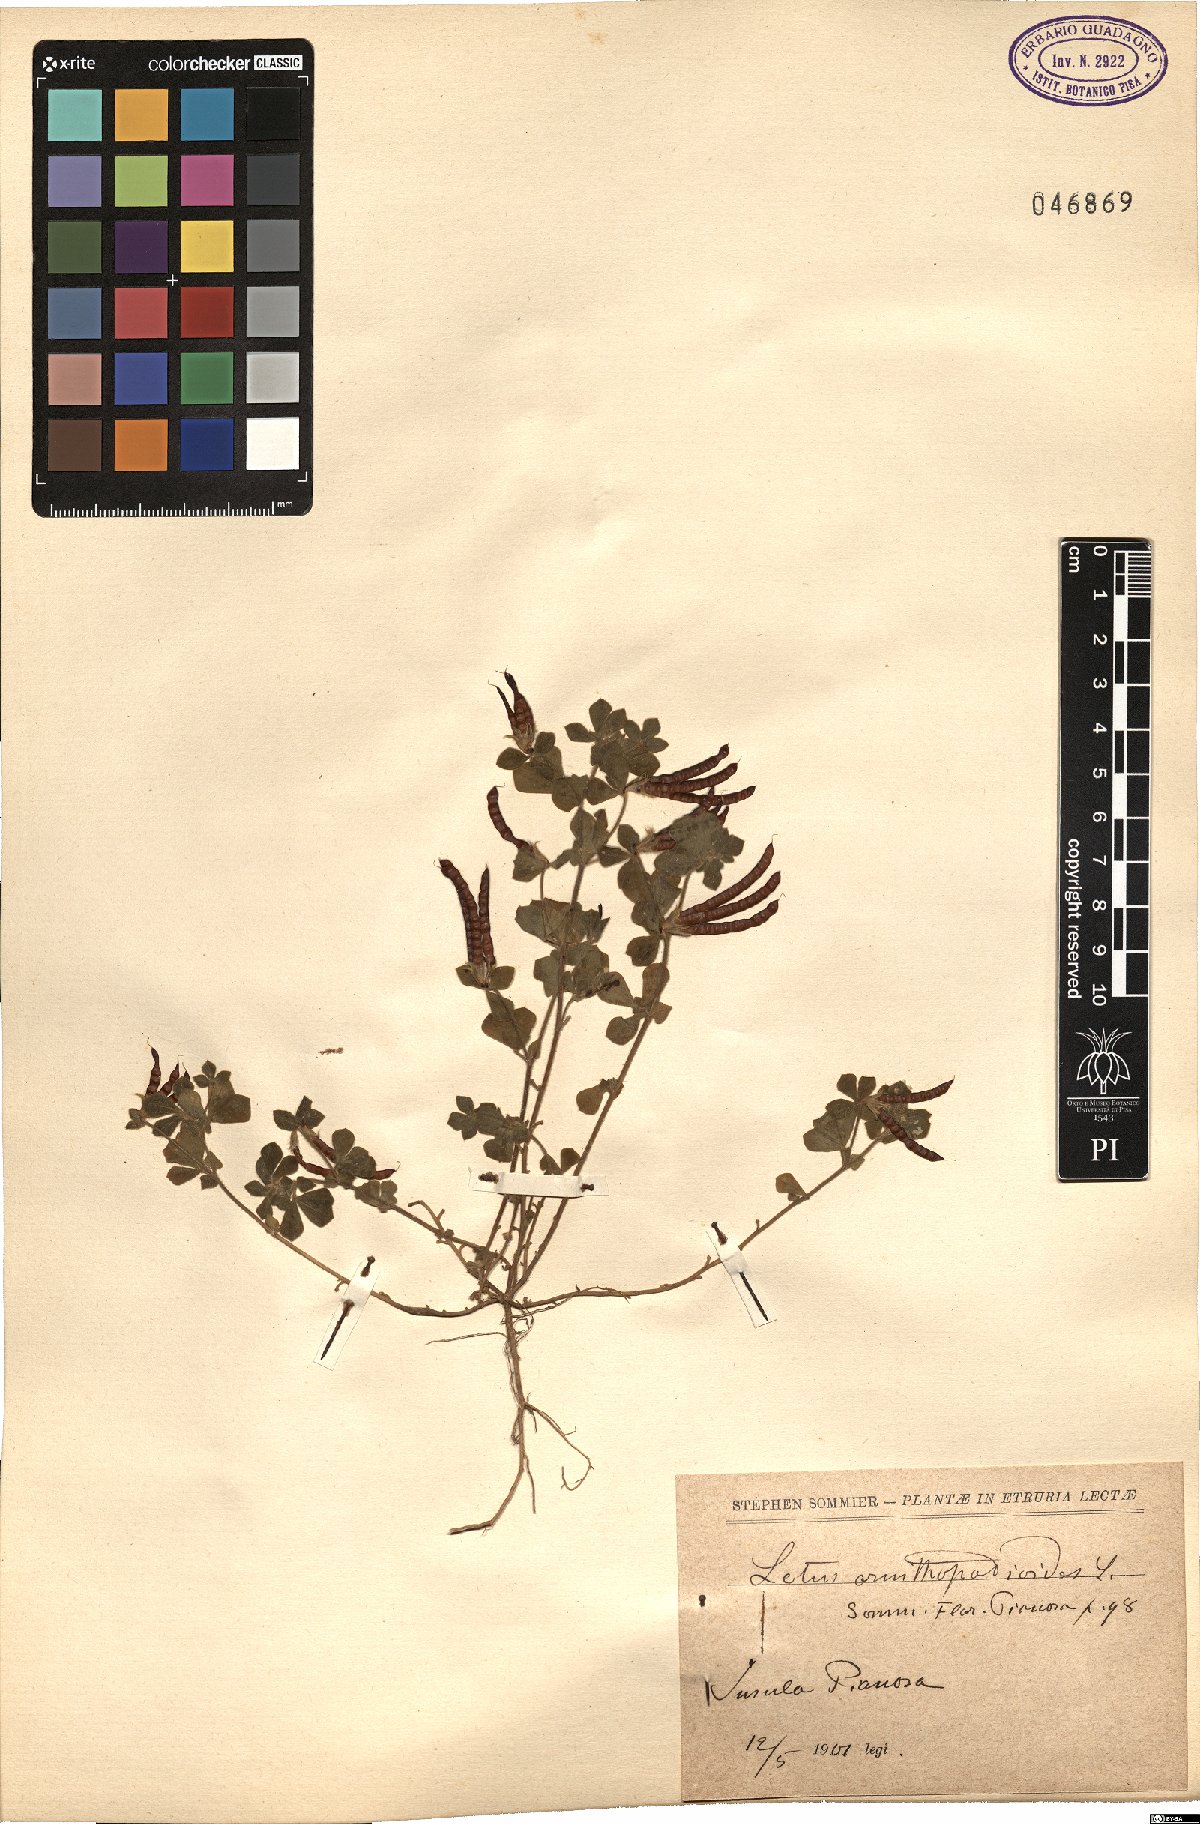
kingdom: Plantae
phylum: Tracheophyta
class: Magnoliopsida
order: Fabales
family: Fabaceae
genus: Lotus
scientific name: Lotus ornithopodioides
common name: Southern bird's-foot trefoil
